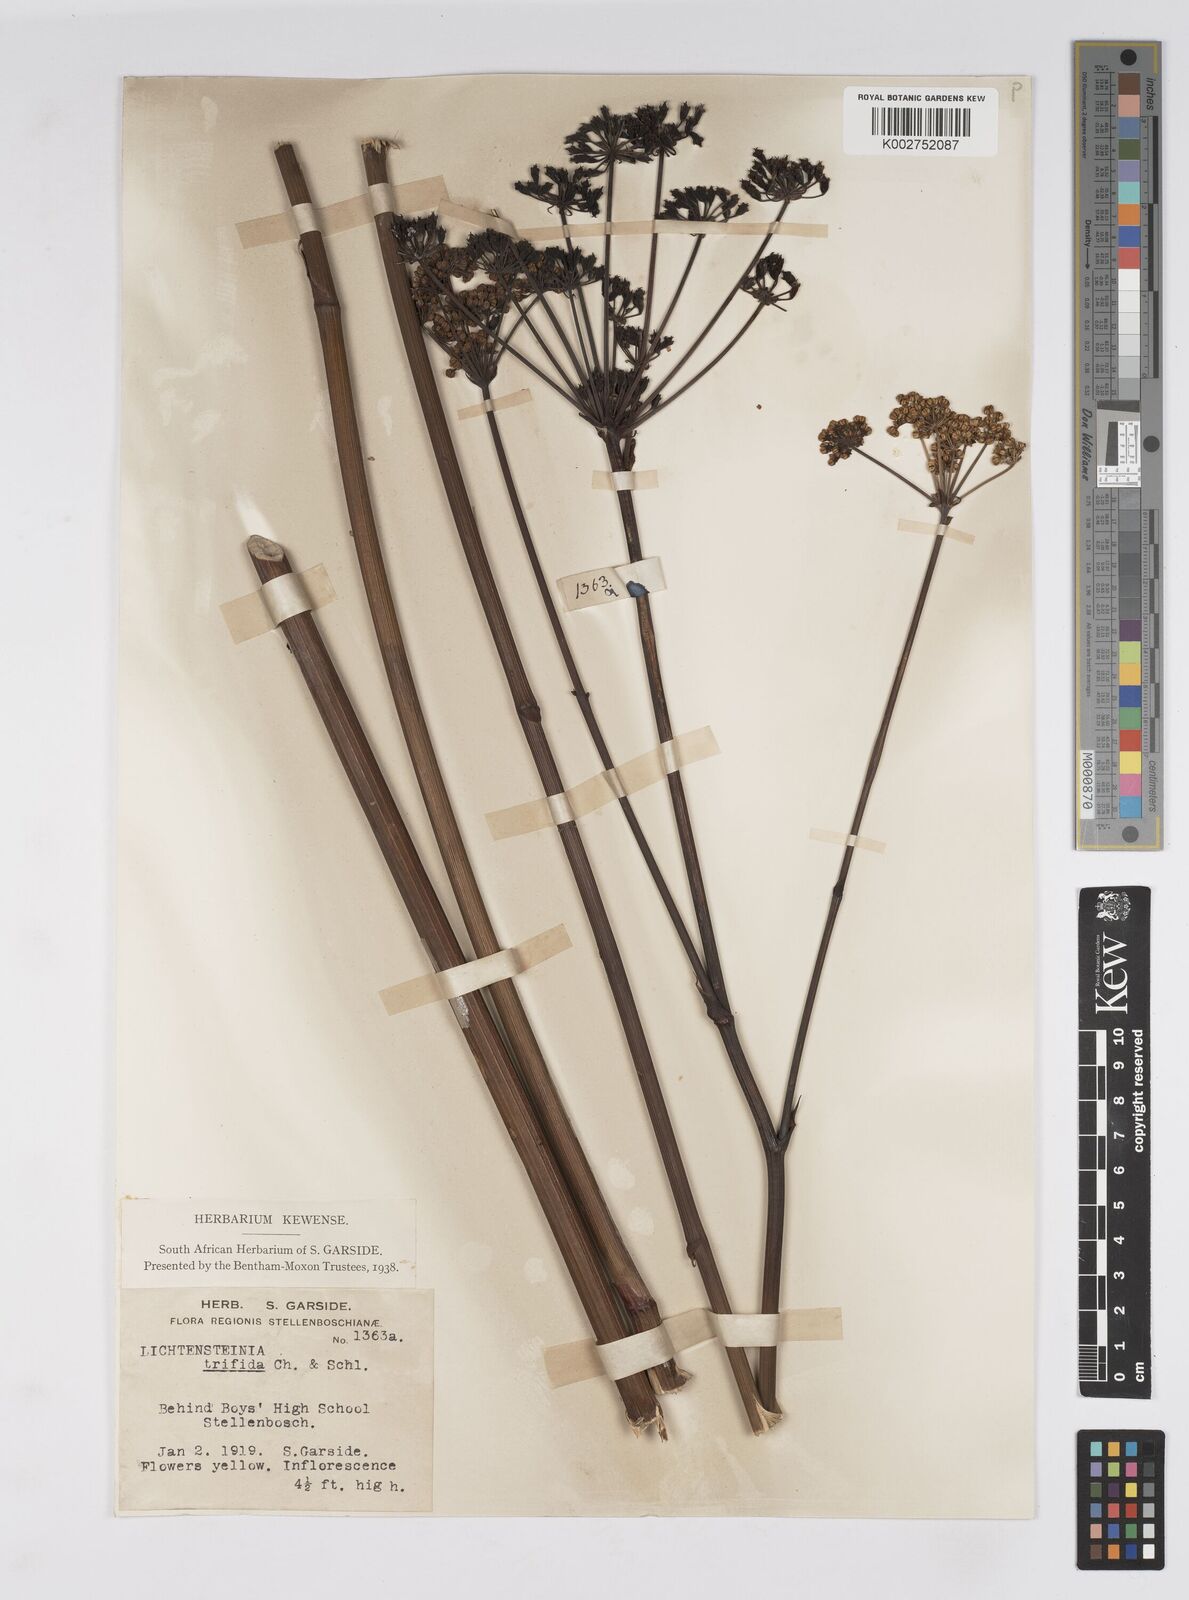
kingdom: Plantae
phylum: Tracheophyta
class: Magnoliopsida
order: Apiales
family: Apiaceae
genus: Lichtensteinia
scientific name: Lichtensteinia trifida
